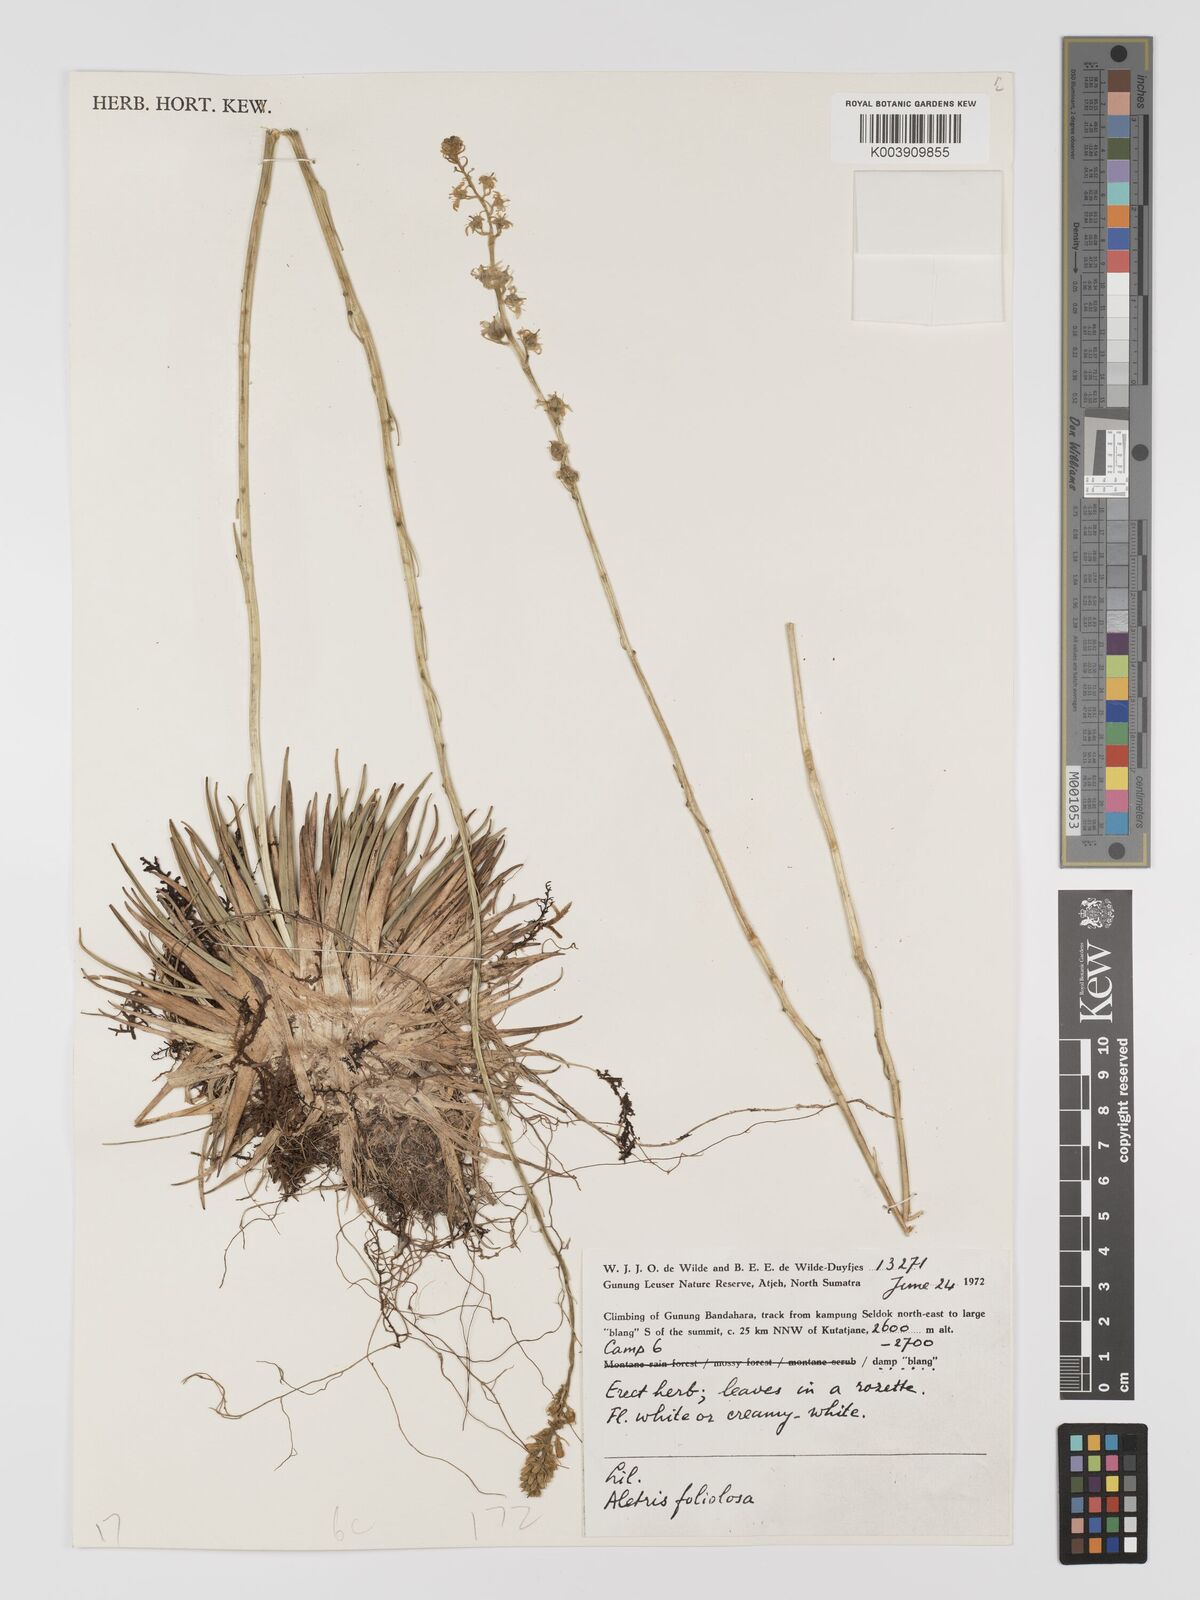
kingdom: Plantae
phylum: Tracheophyta
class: Liliopsida
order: Dioscoreales
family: Nartheciaceae
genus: Aletris
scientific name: Aletris foliolosa
